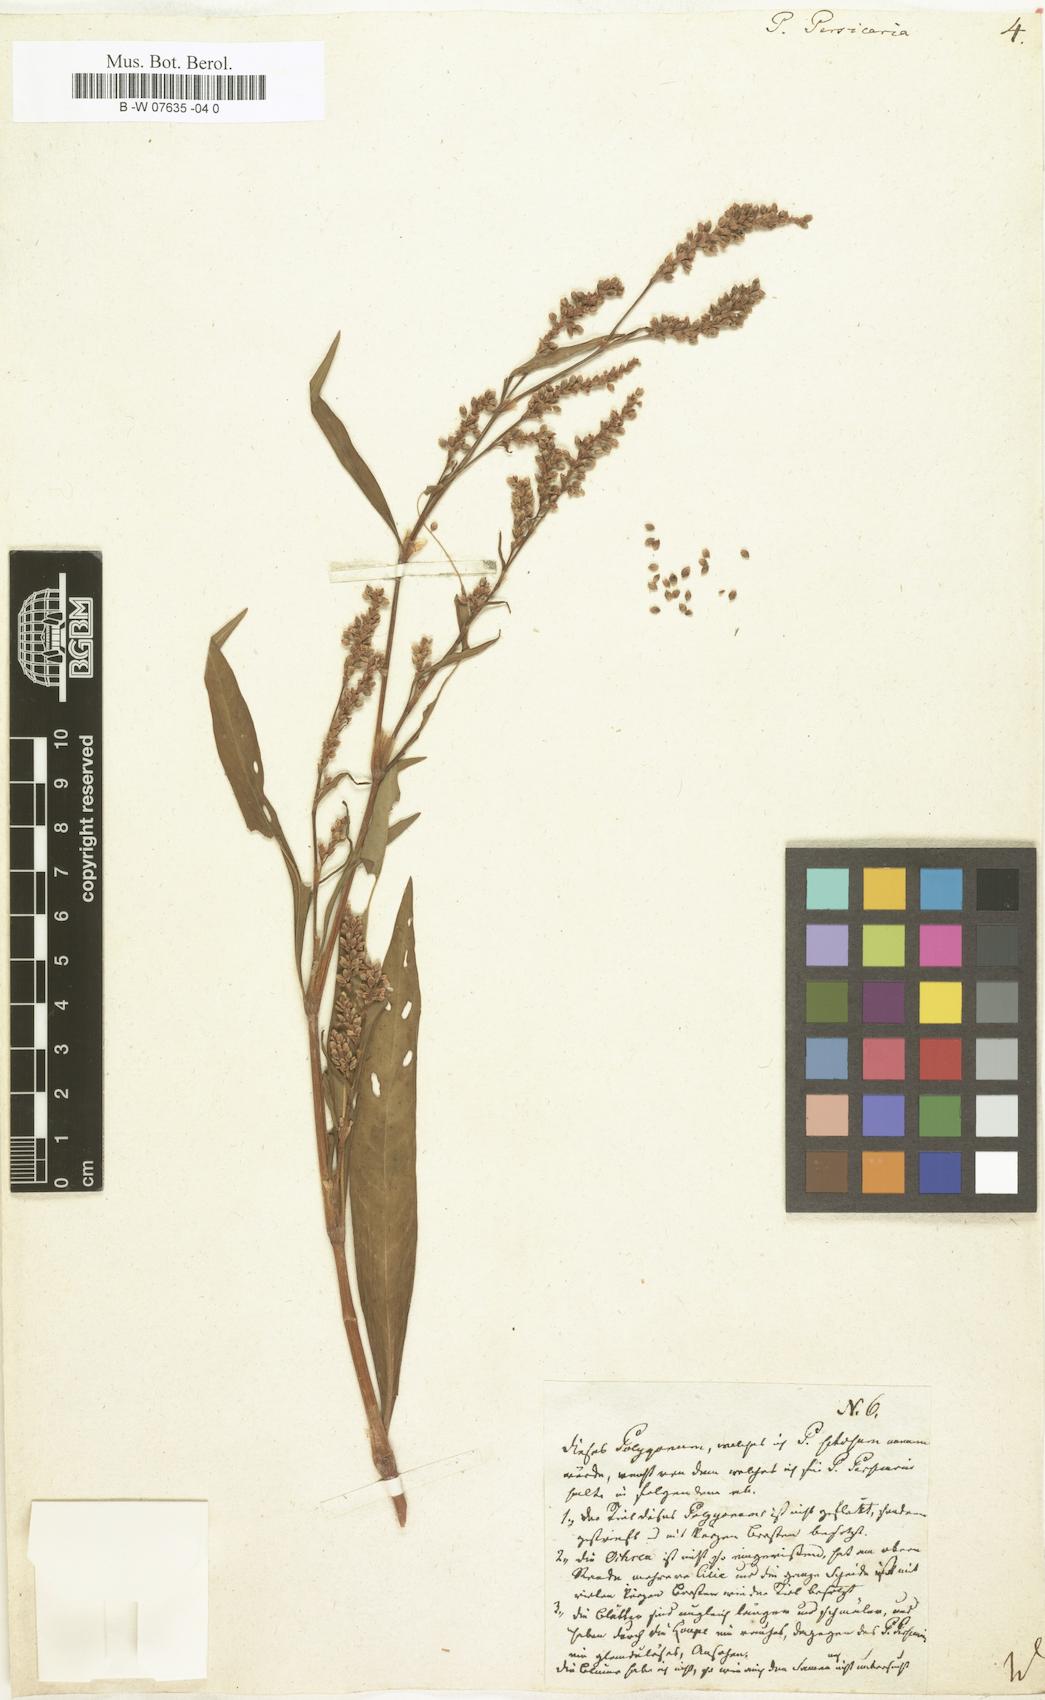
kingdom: Plantae
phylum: Tracheophyta
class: Magnoliopsida
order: Caryophyllales
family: Polygonaceae
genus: Polygonum
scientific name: Polygonum persicaria
